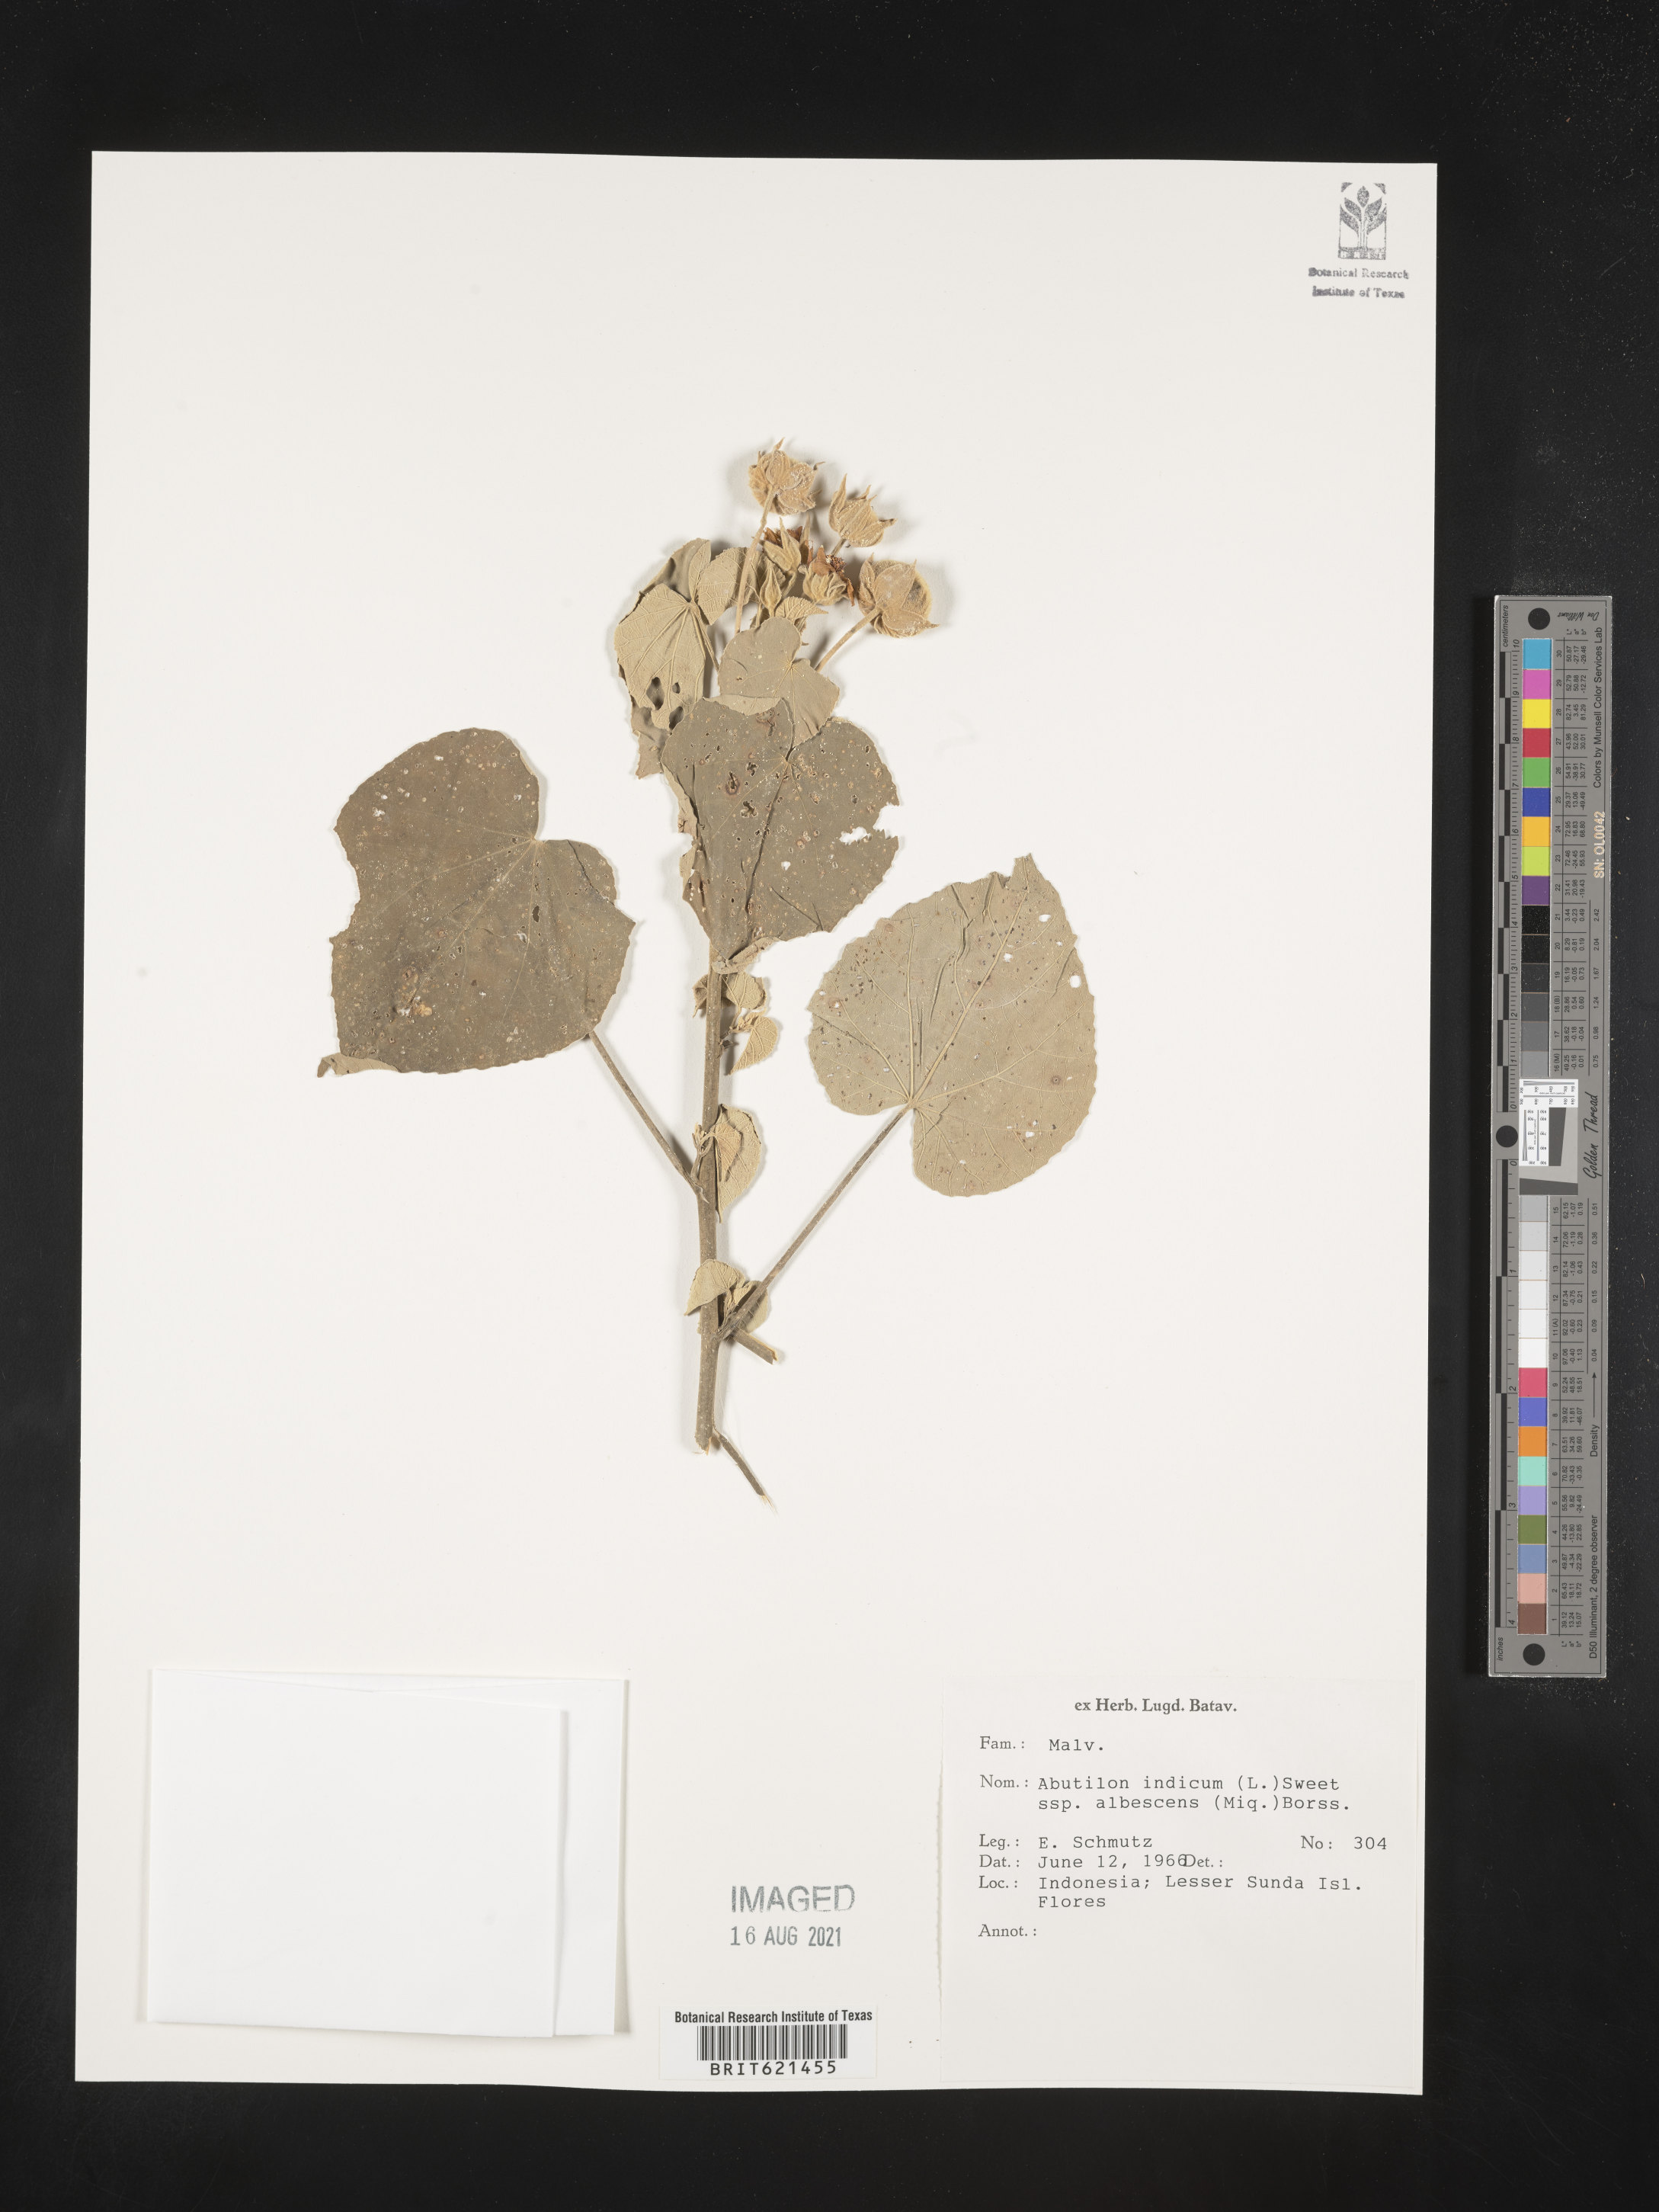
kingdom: Plantae
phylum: Tracheophyta
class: Magnoliopsida
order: Malvales
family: Malvaceae
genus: Abutilon
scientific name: Abutilon indicum
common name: Indian abutilon
